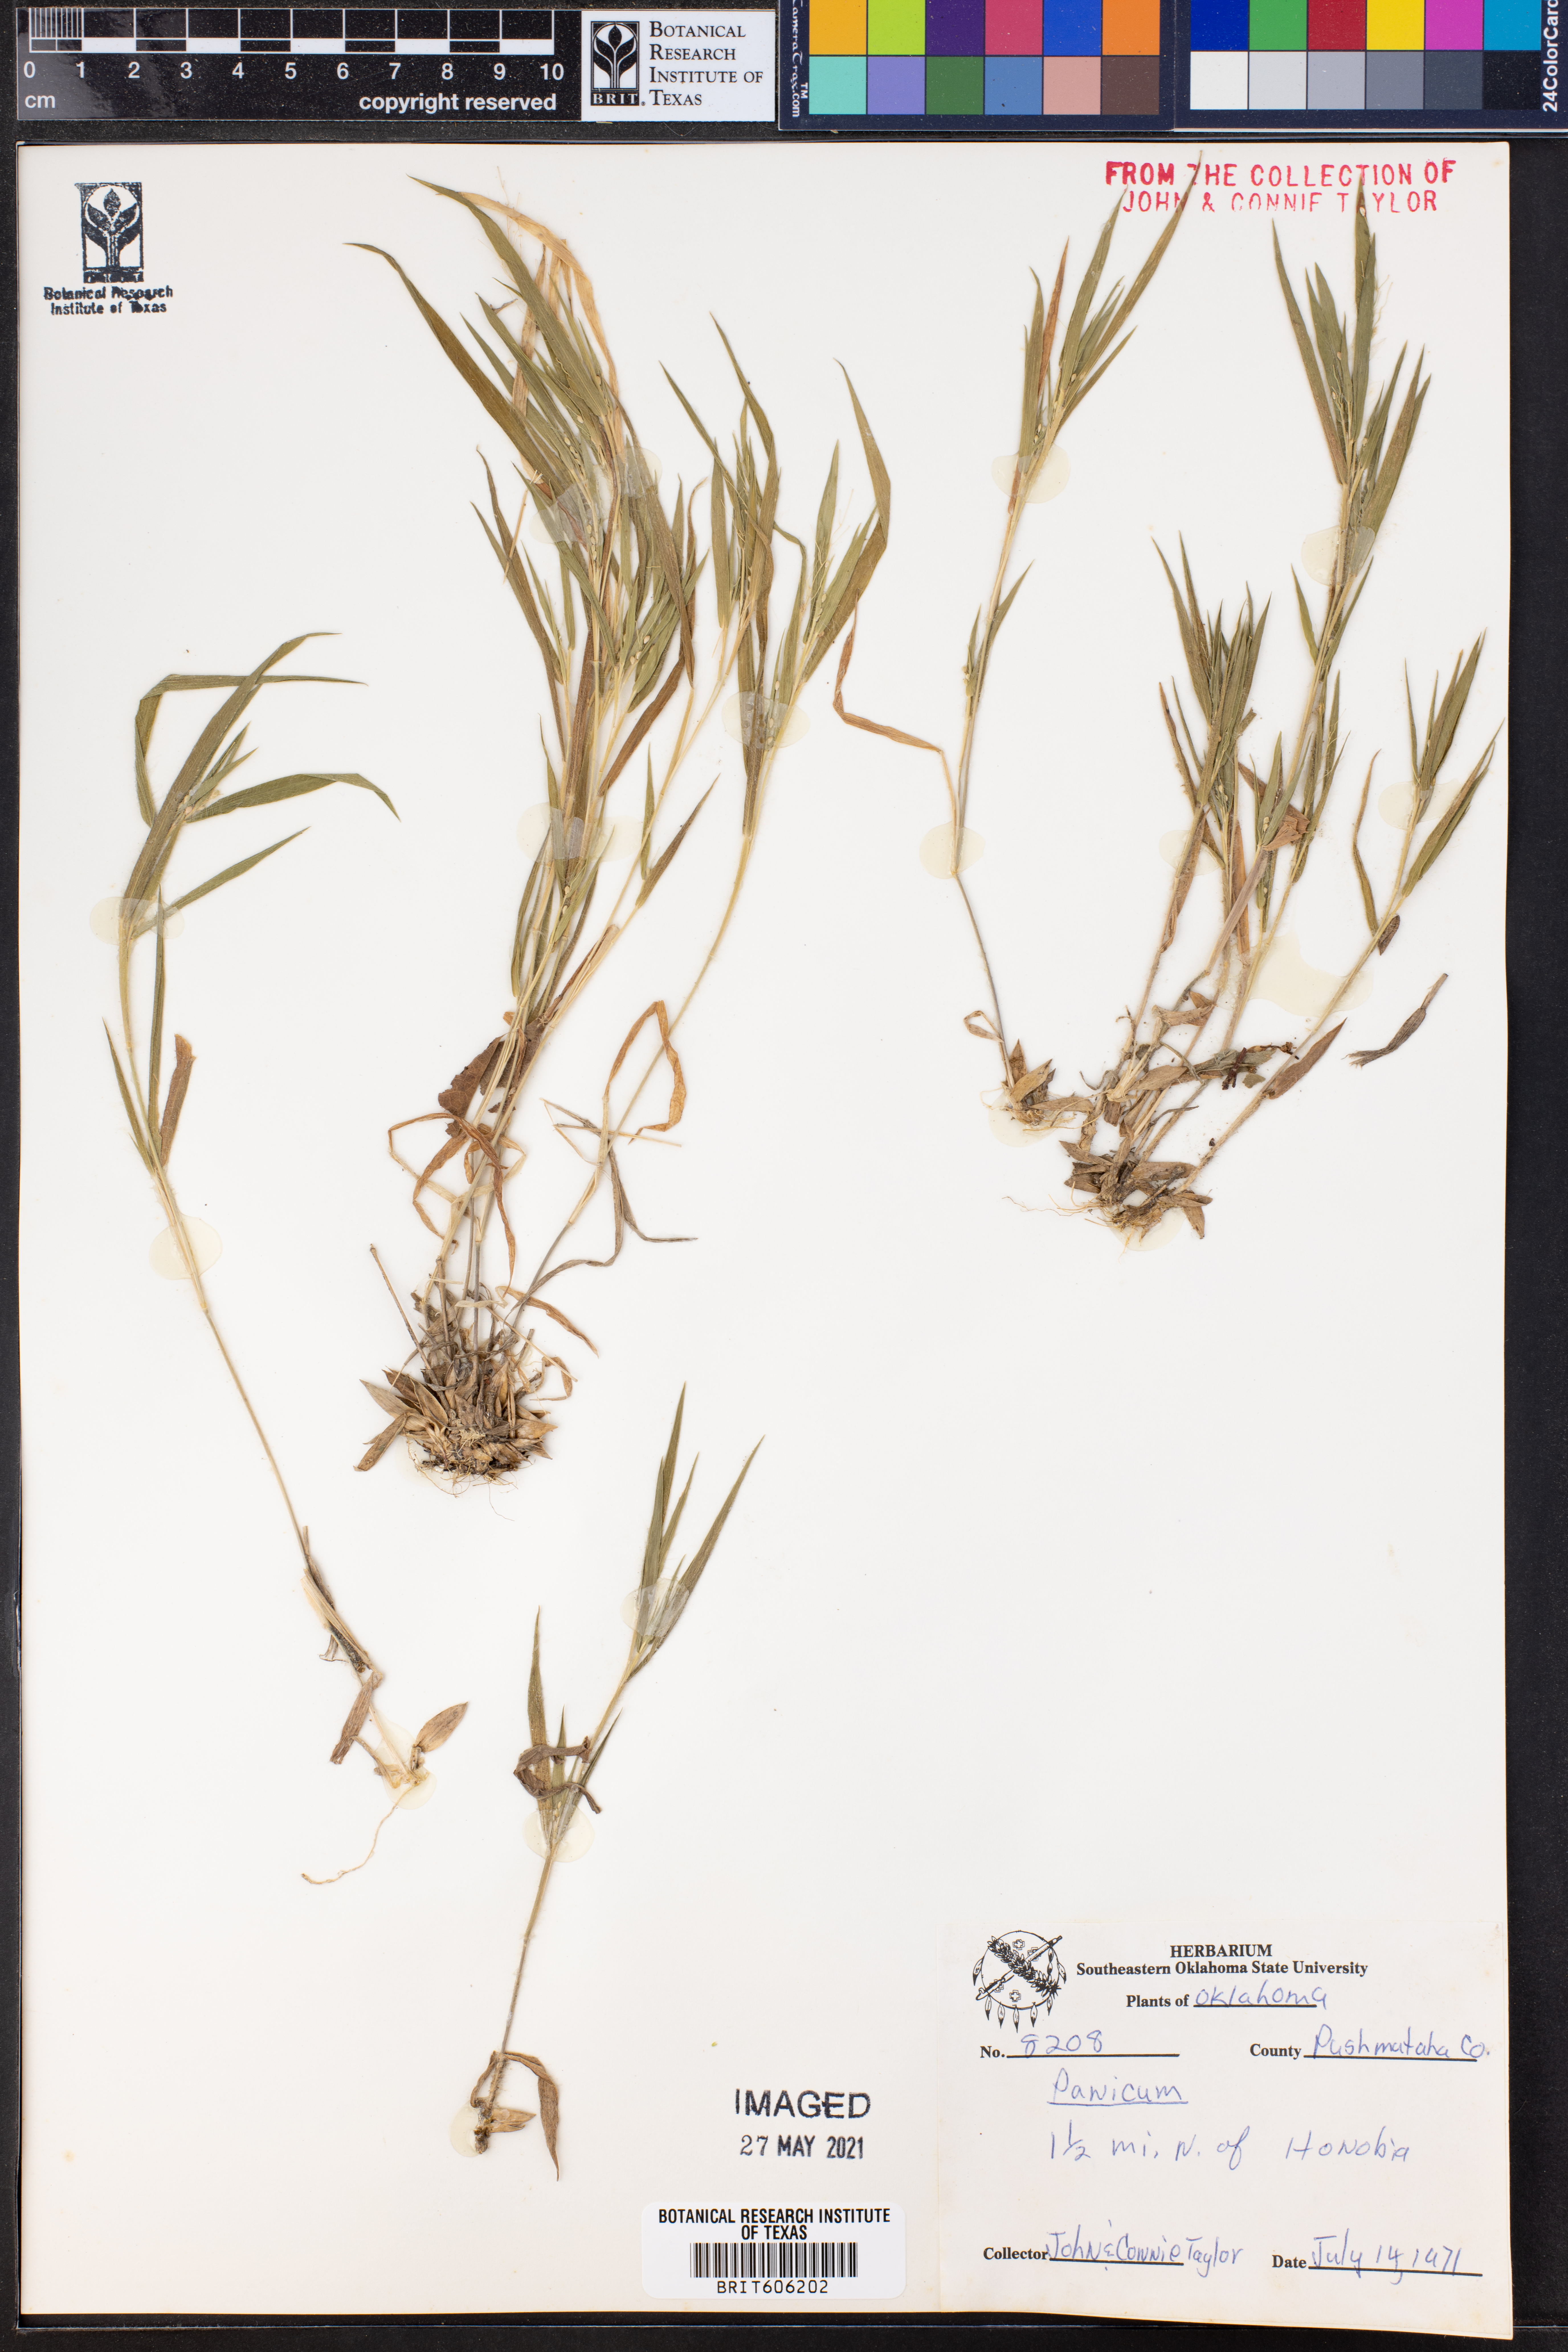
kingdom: Plantae
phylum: Tracheophyta
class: Liliopsida
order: Poales
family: Poaceae
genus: Panicum
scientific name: Panicum
